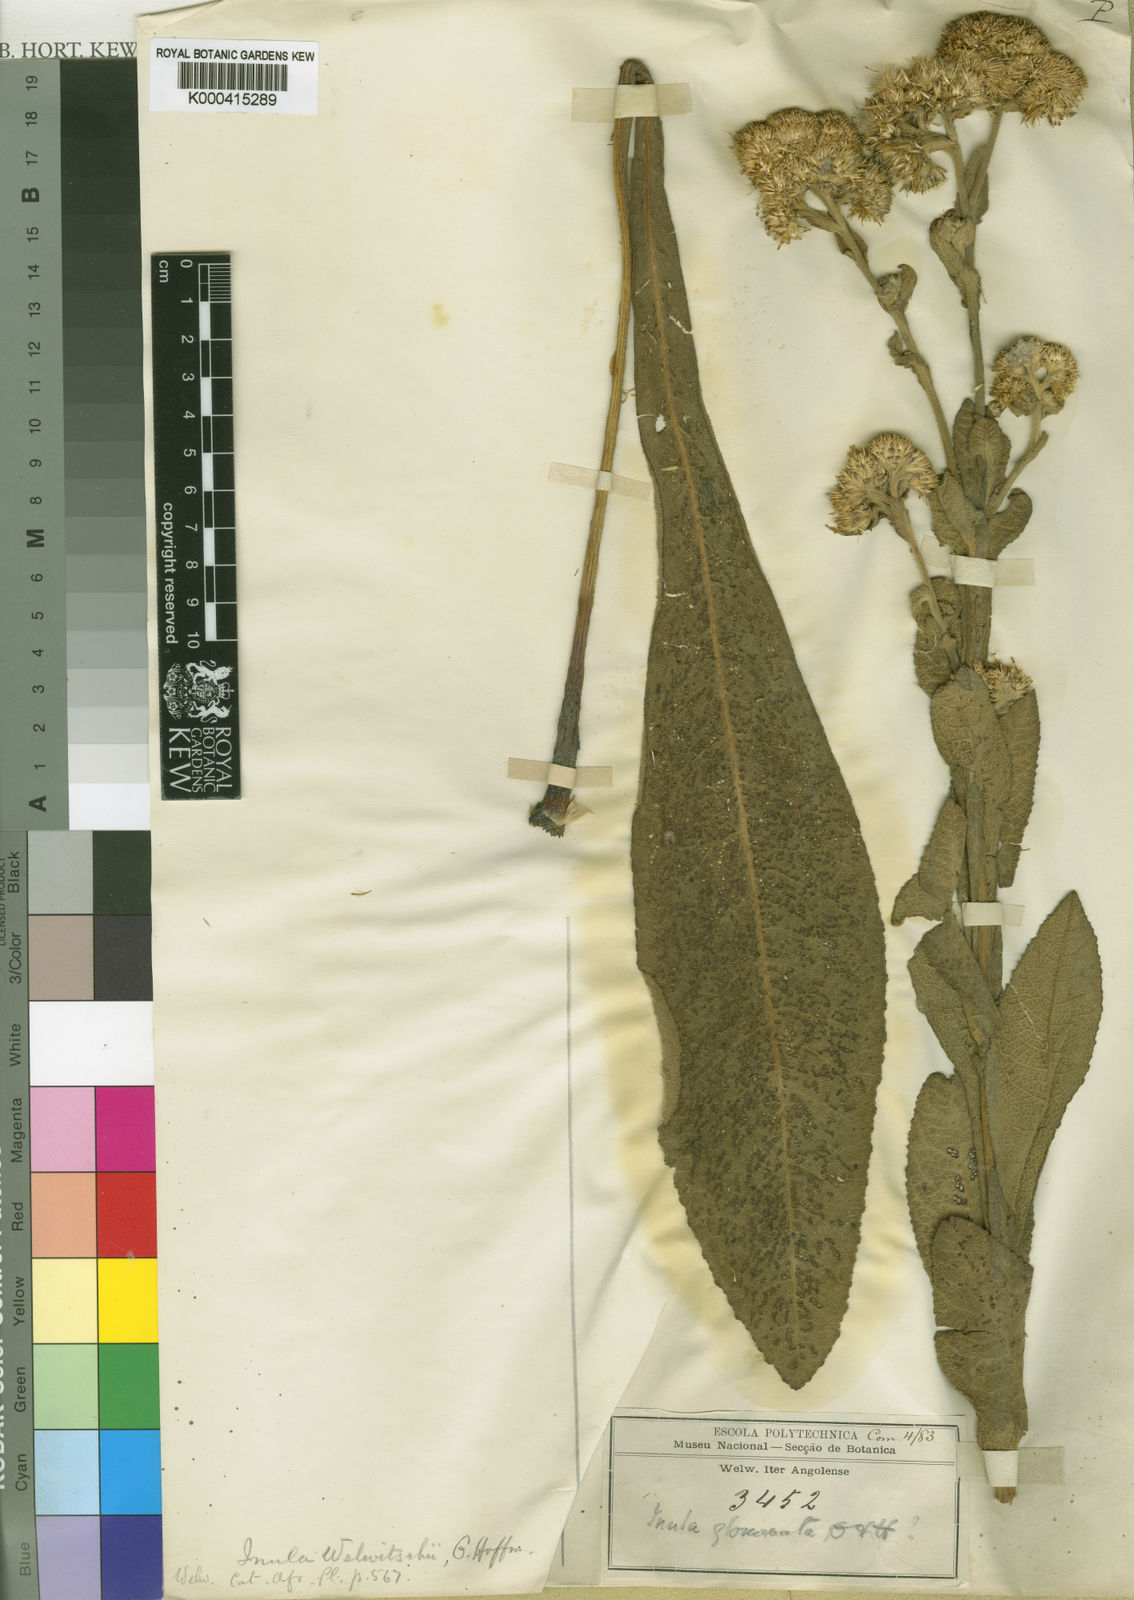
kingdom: Plantae
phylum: Tracheophyta
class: Magnoliopsida
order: Asterales
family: Asteraceae
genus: Inula
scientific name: Inula welwitschii
